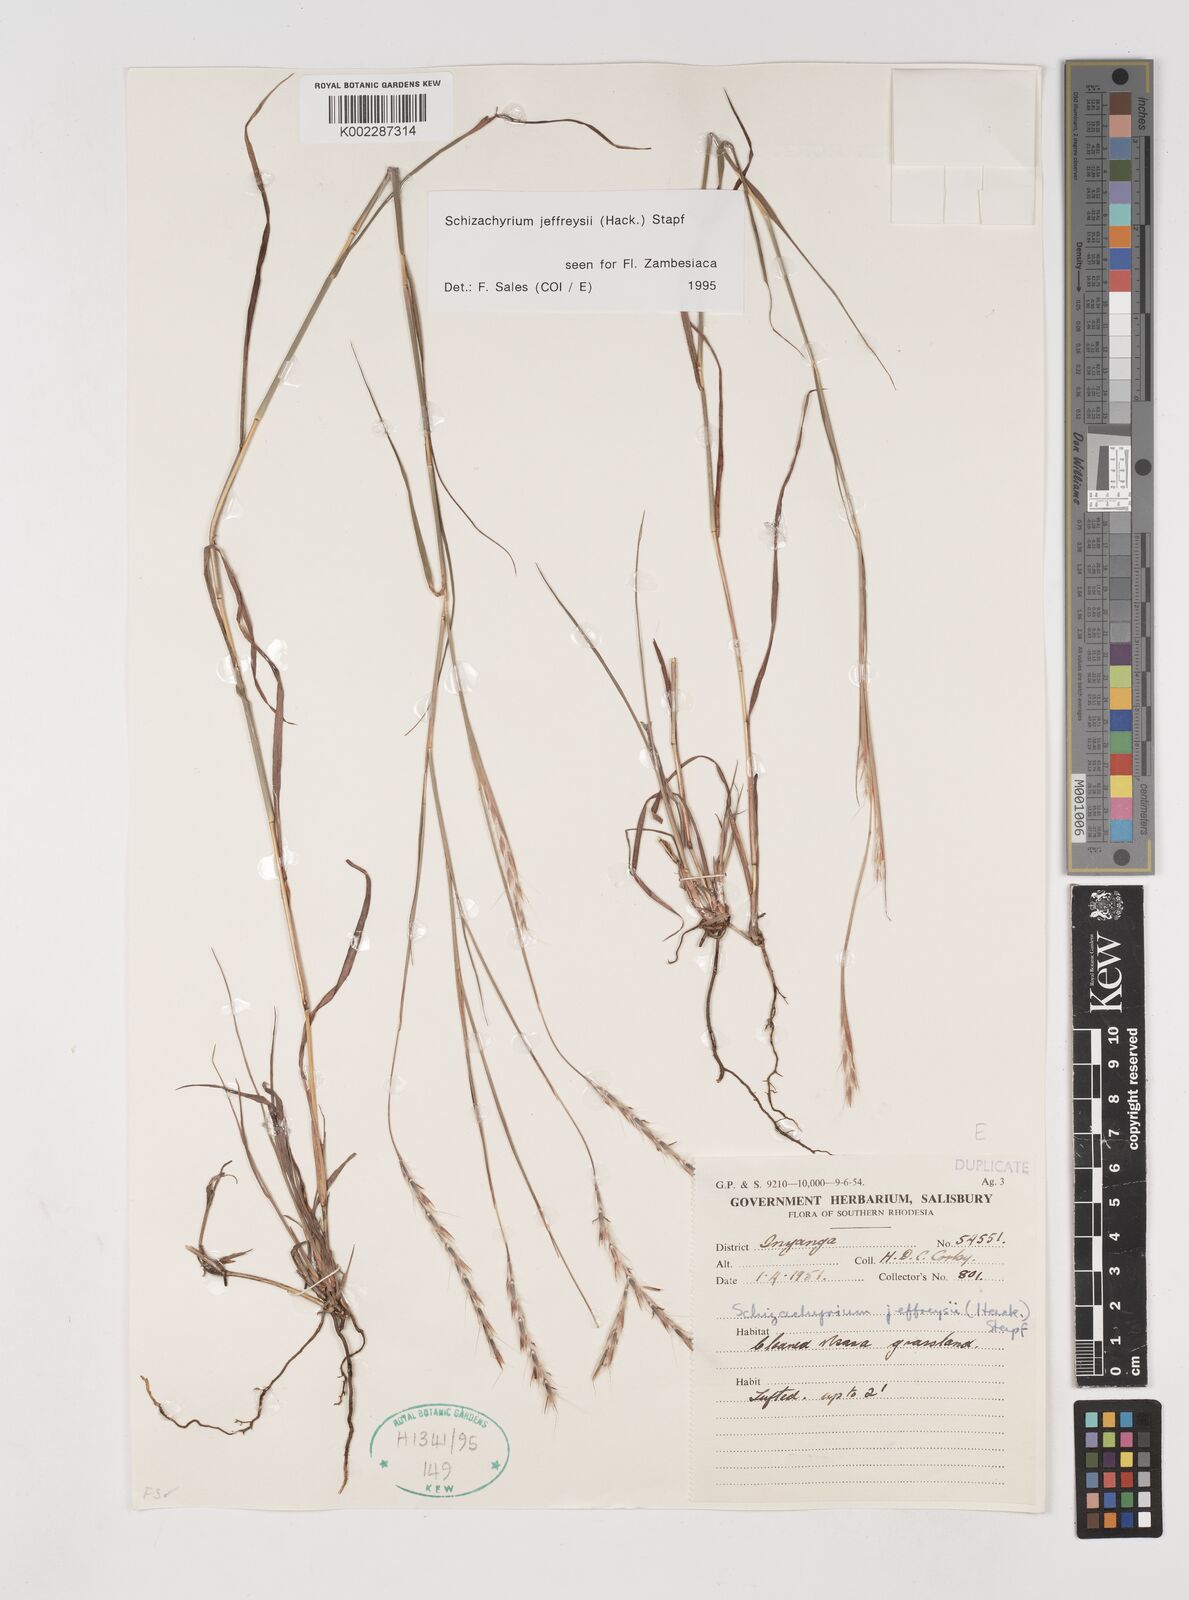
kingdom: Plantae
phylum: Tracheophyta
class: Liliopsida
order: Poales
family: Poaceae
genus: Schizachyrium
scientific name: Schizachyrium jeffreysii
